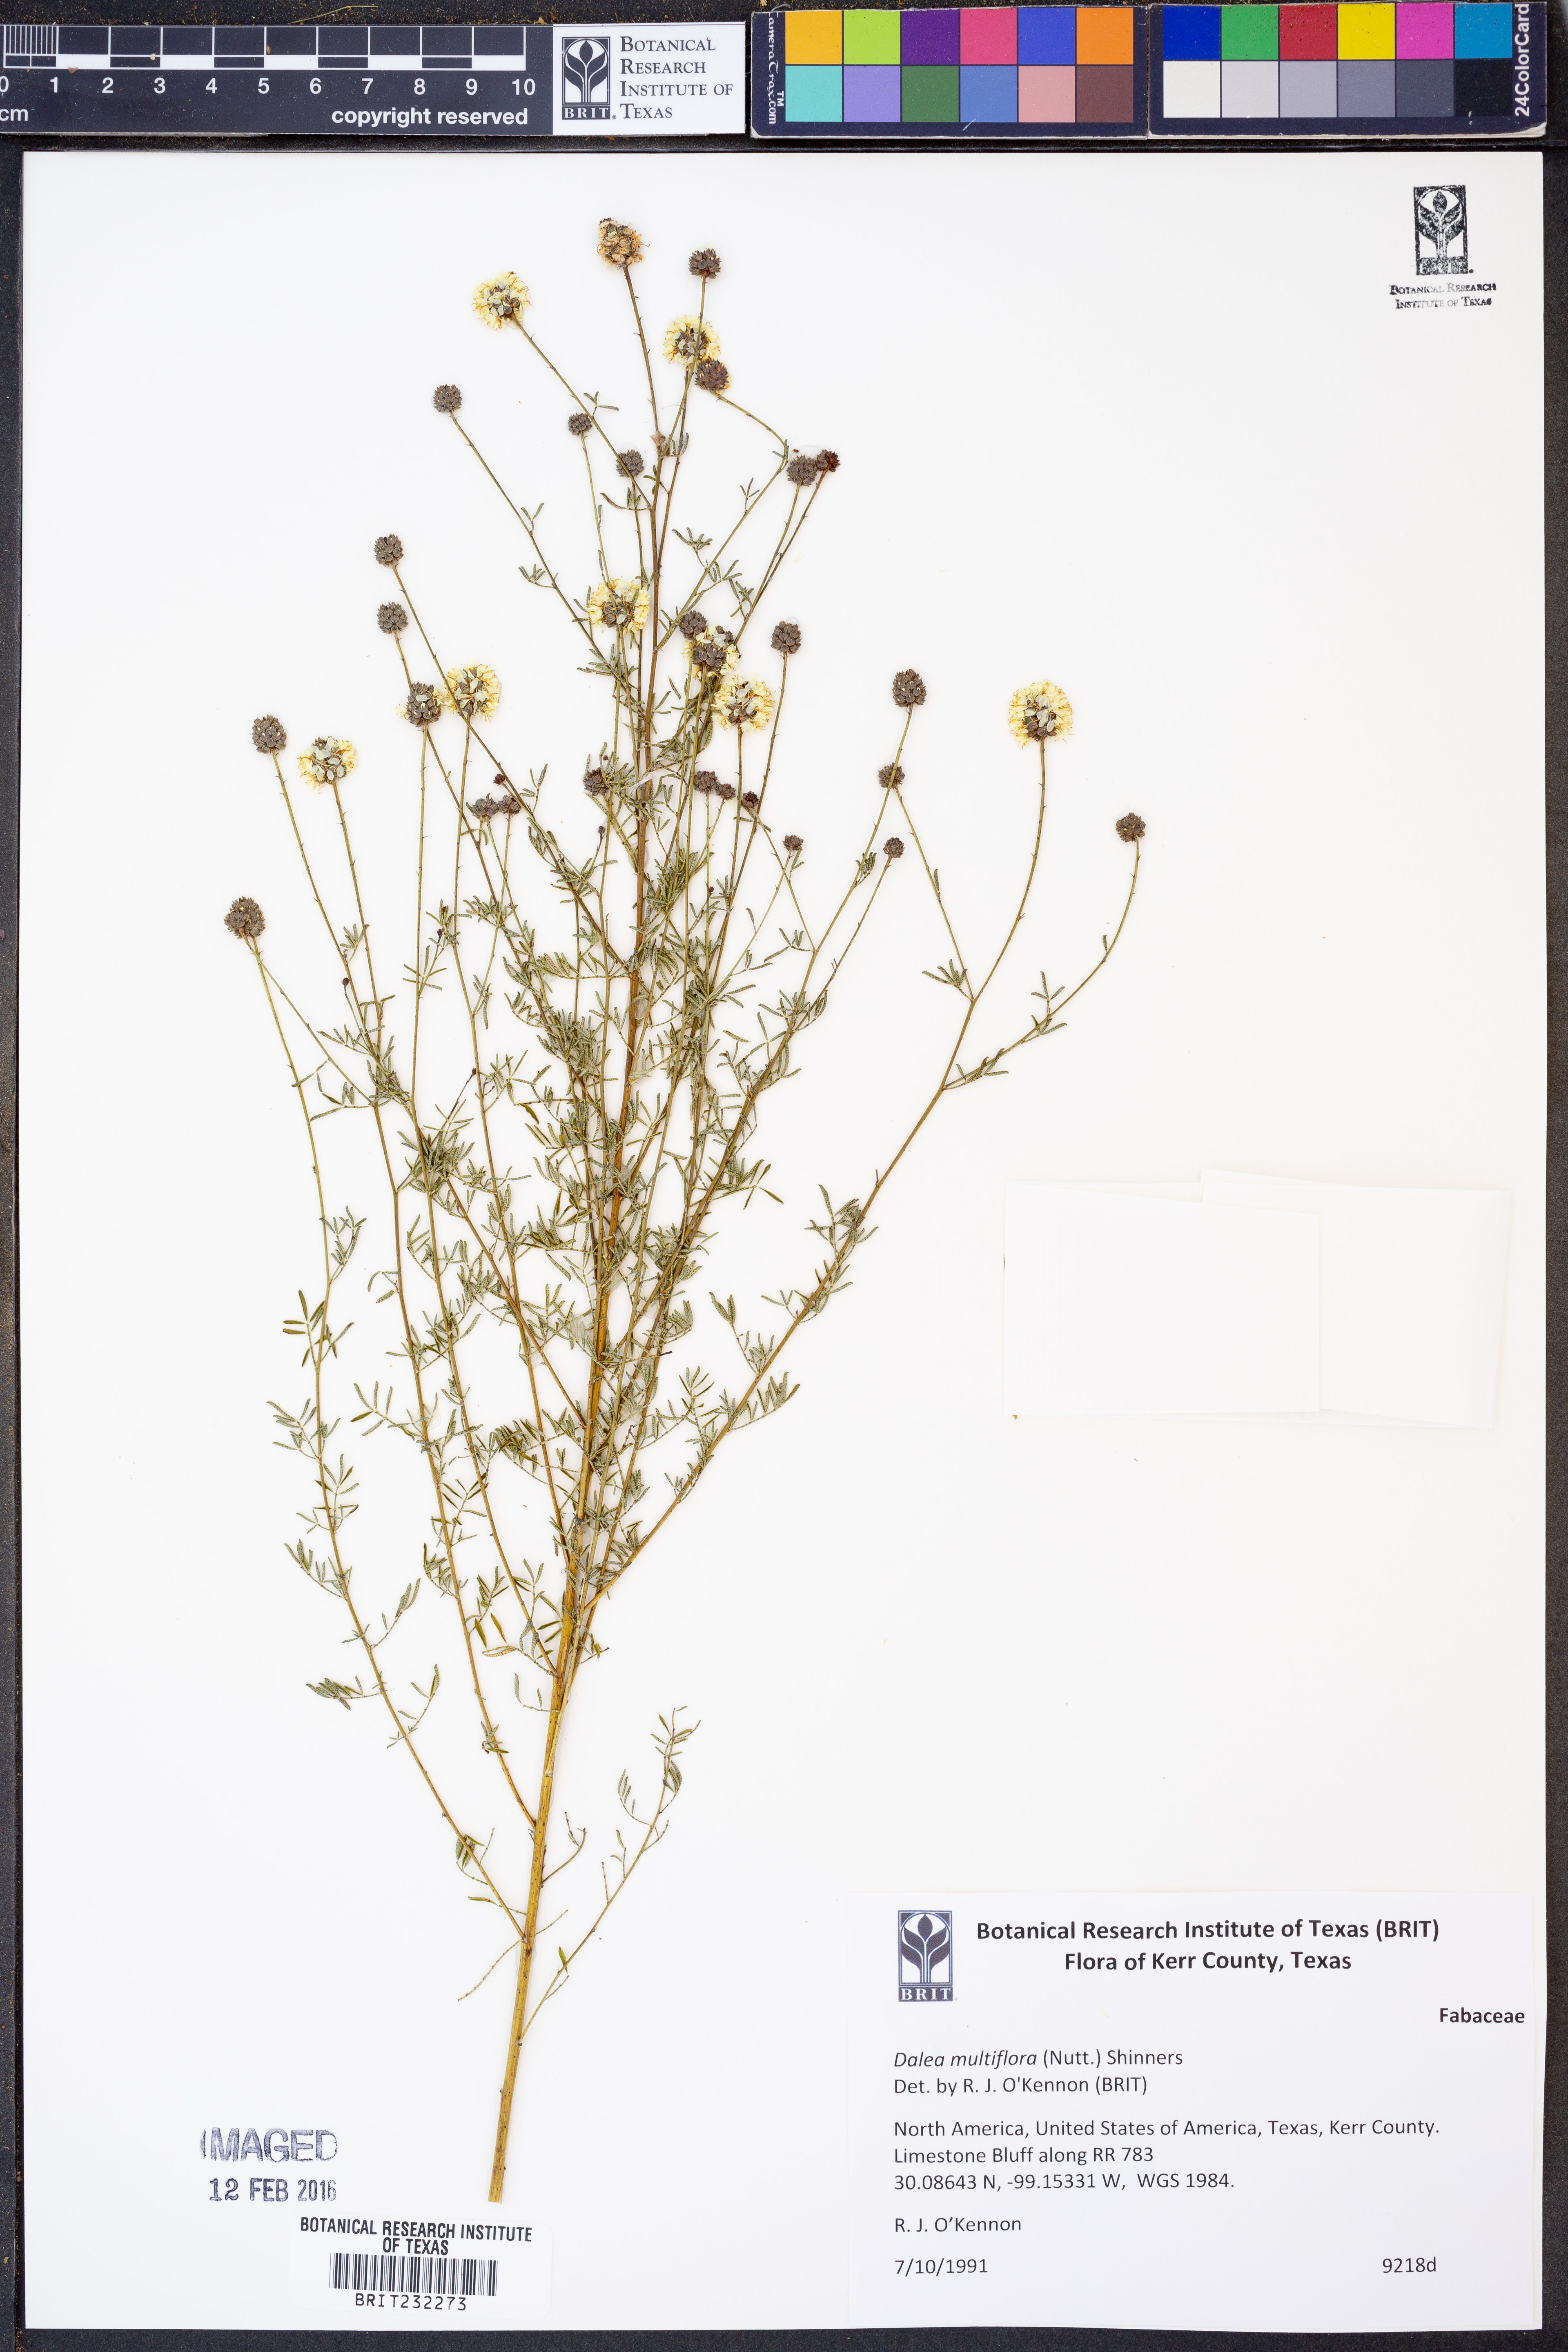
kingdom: Plantae
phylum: Tracheophyta
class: Magnoliopsida
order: Fabales
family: Fabaceae
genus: Dalea
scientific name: Dalea multiflora
